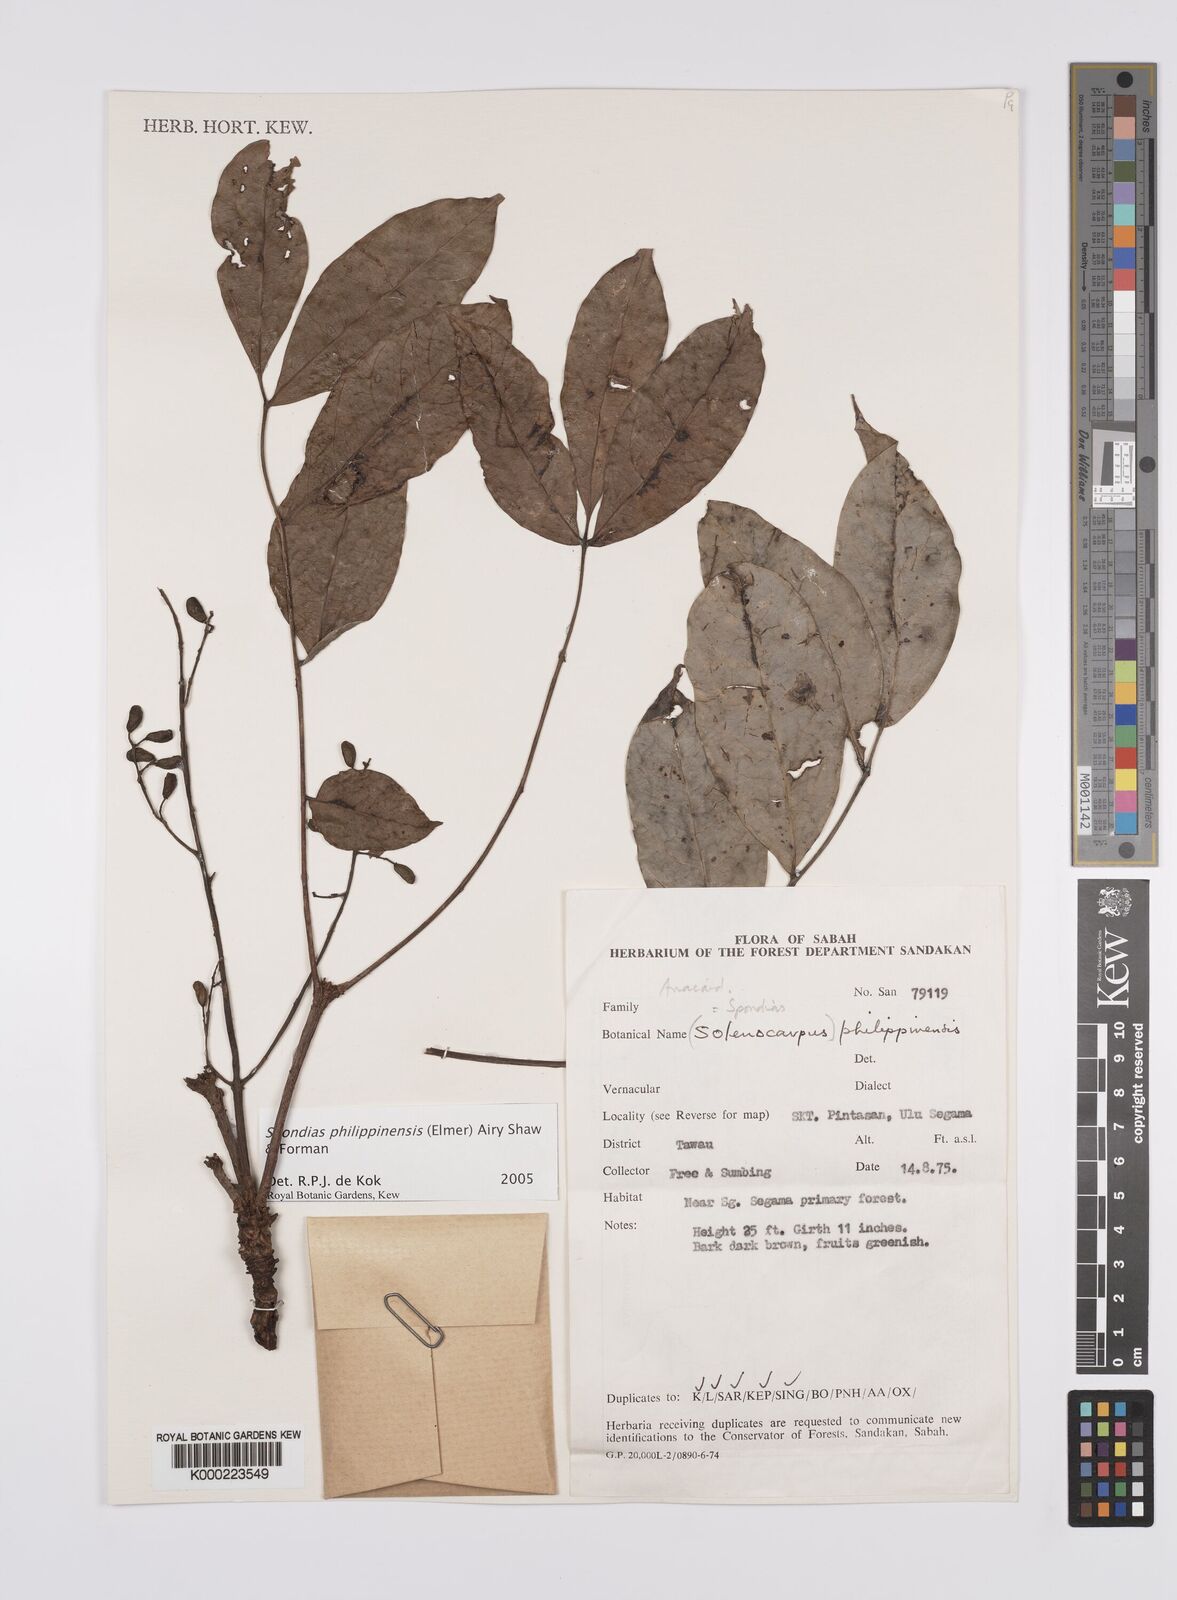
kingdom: Plantae
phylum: Tracheophyta
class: Magnoliopsida
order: Sapindales
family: Anacardiaceae
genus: Spondias
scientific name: Spondias philippinensis
